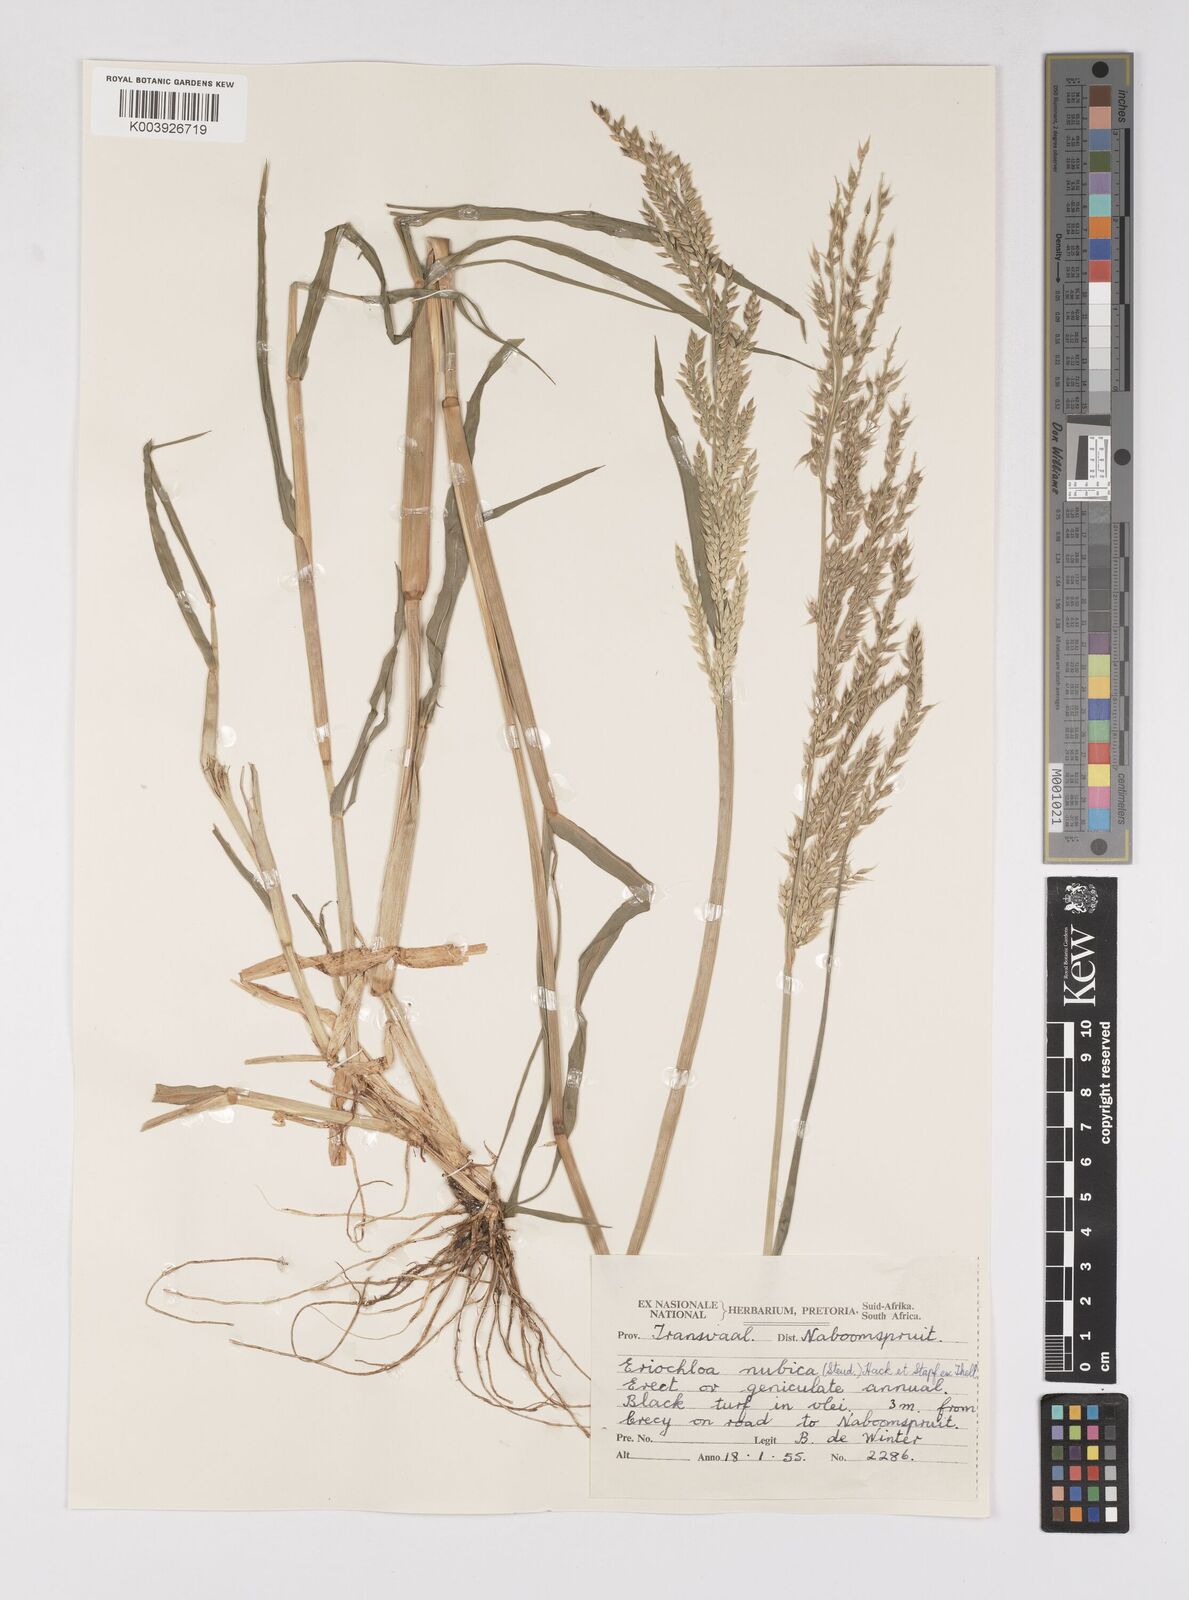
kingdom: Plantae
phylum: Tracheophyta
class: Liliopsida
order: Poales
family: Poaceae
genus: Eriochloa
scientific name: Eriochloa barbatus
